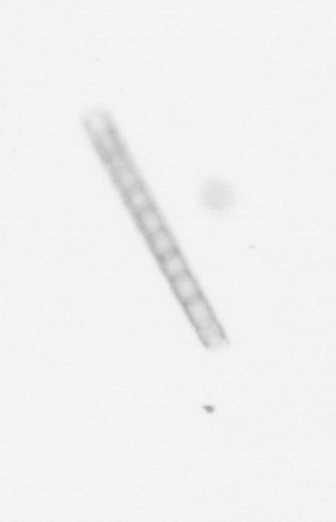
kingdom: Chromista
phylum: Ochrophyta
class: Bacillariophyceae
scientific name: Bacillariophyceae
